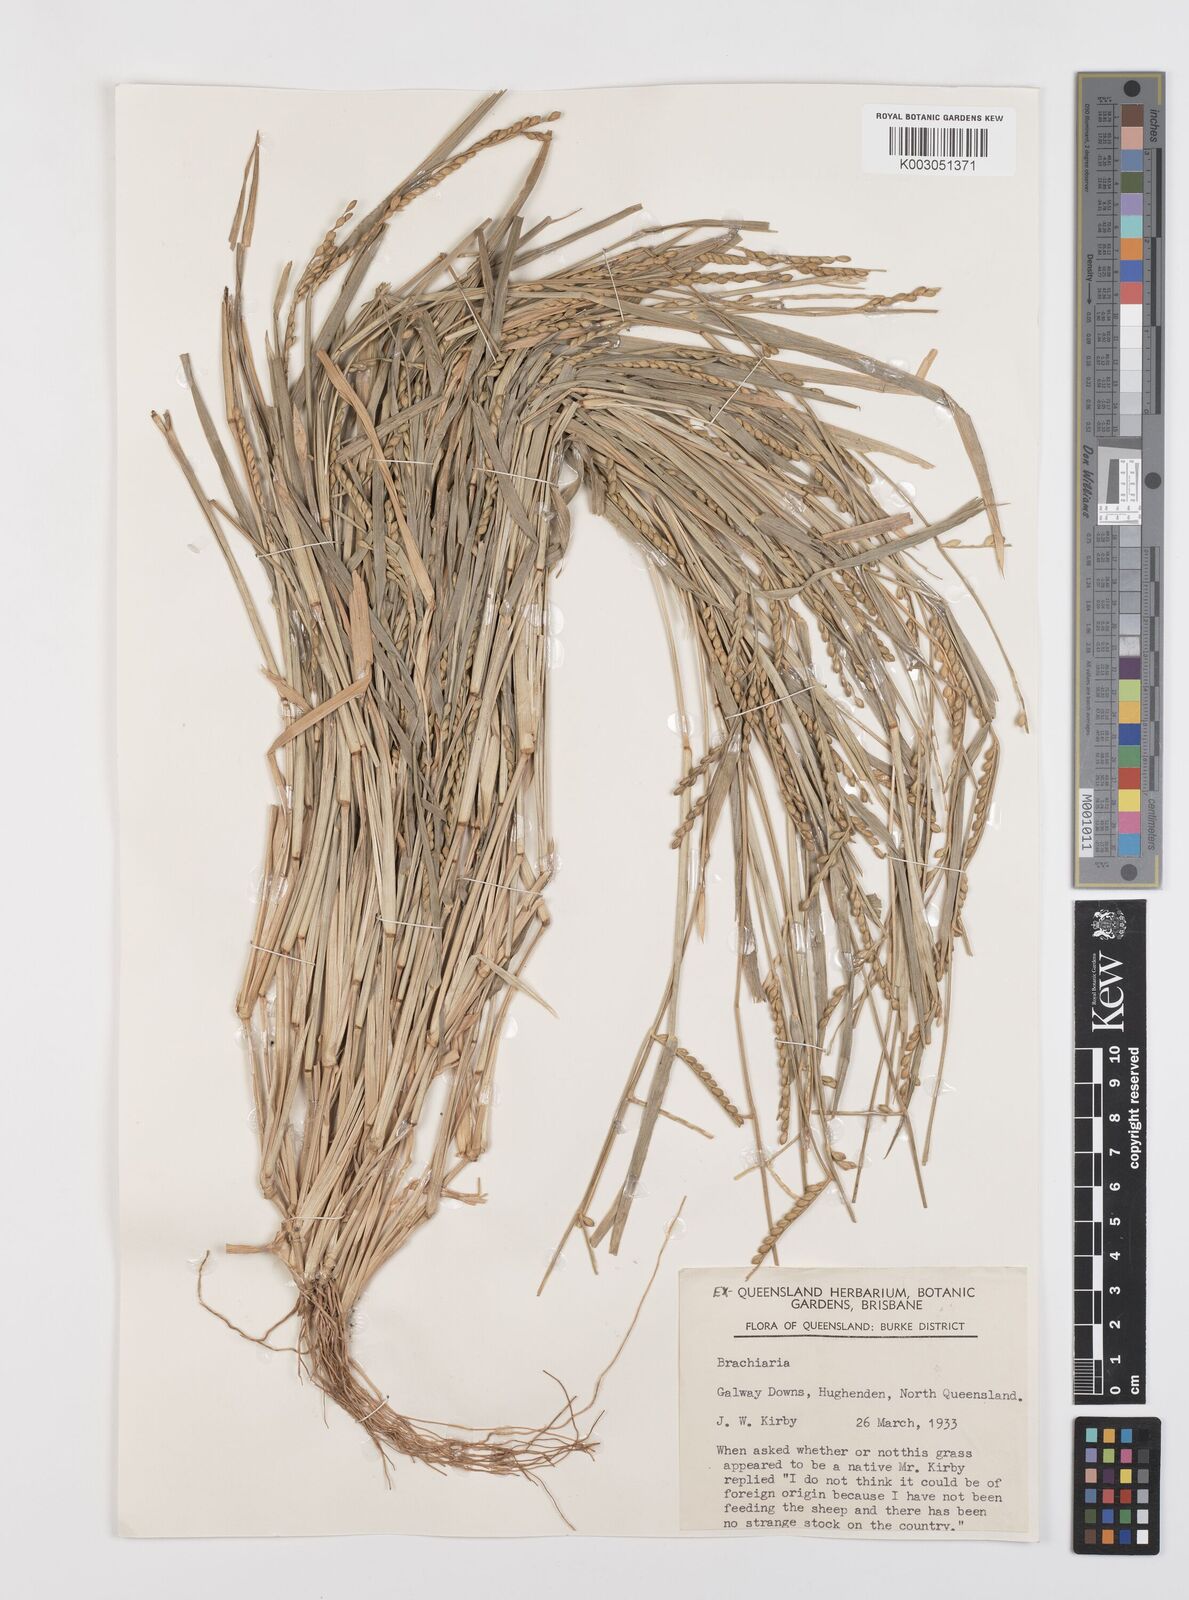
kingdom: Plantae
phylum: Tracheophyta
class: Liliopsida
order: Poales
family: Poaceae
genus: Brachiaria
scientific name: Brachiaria
